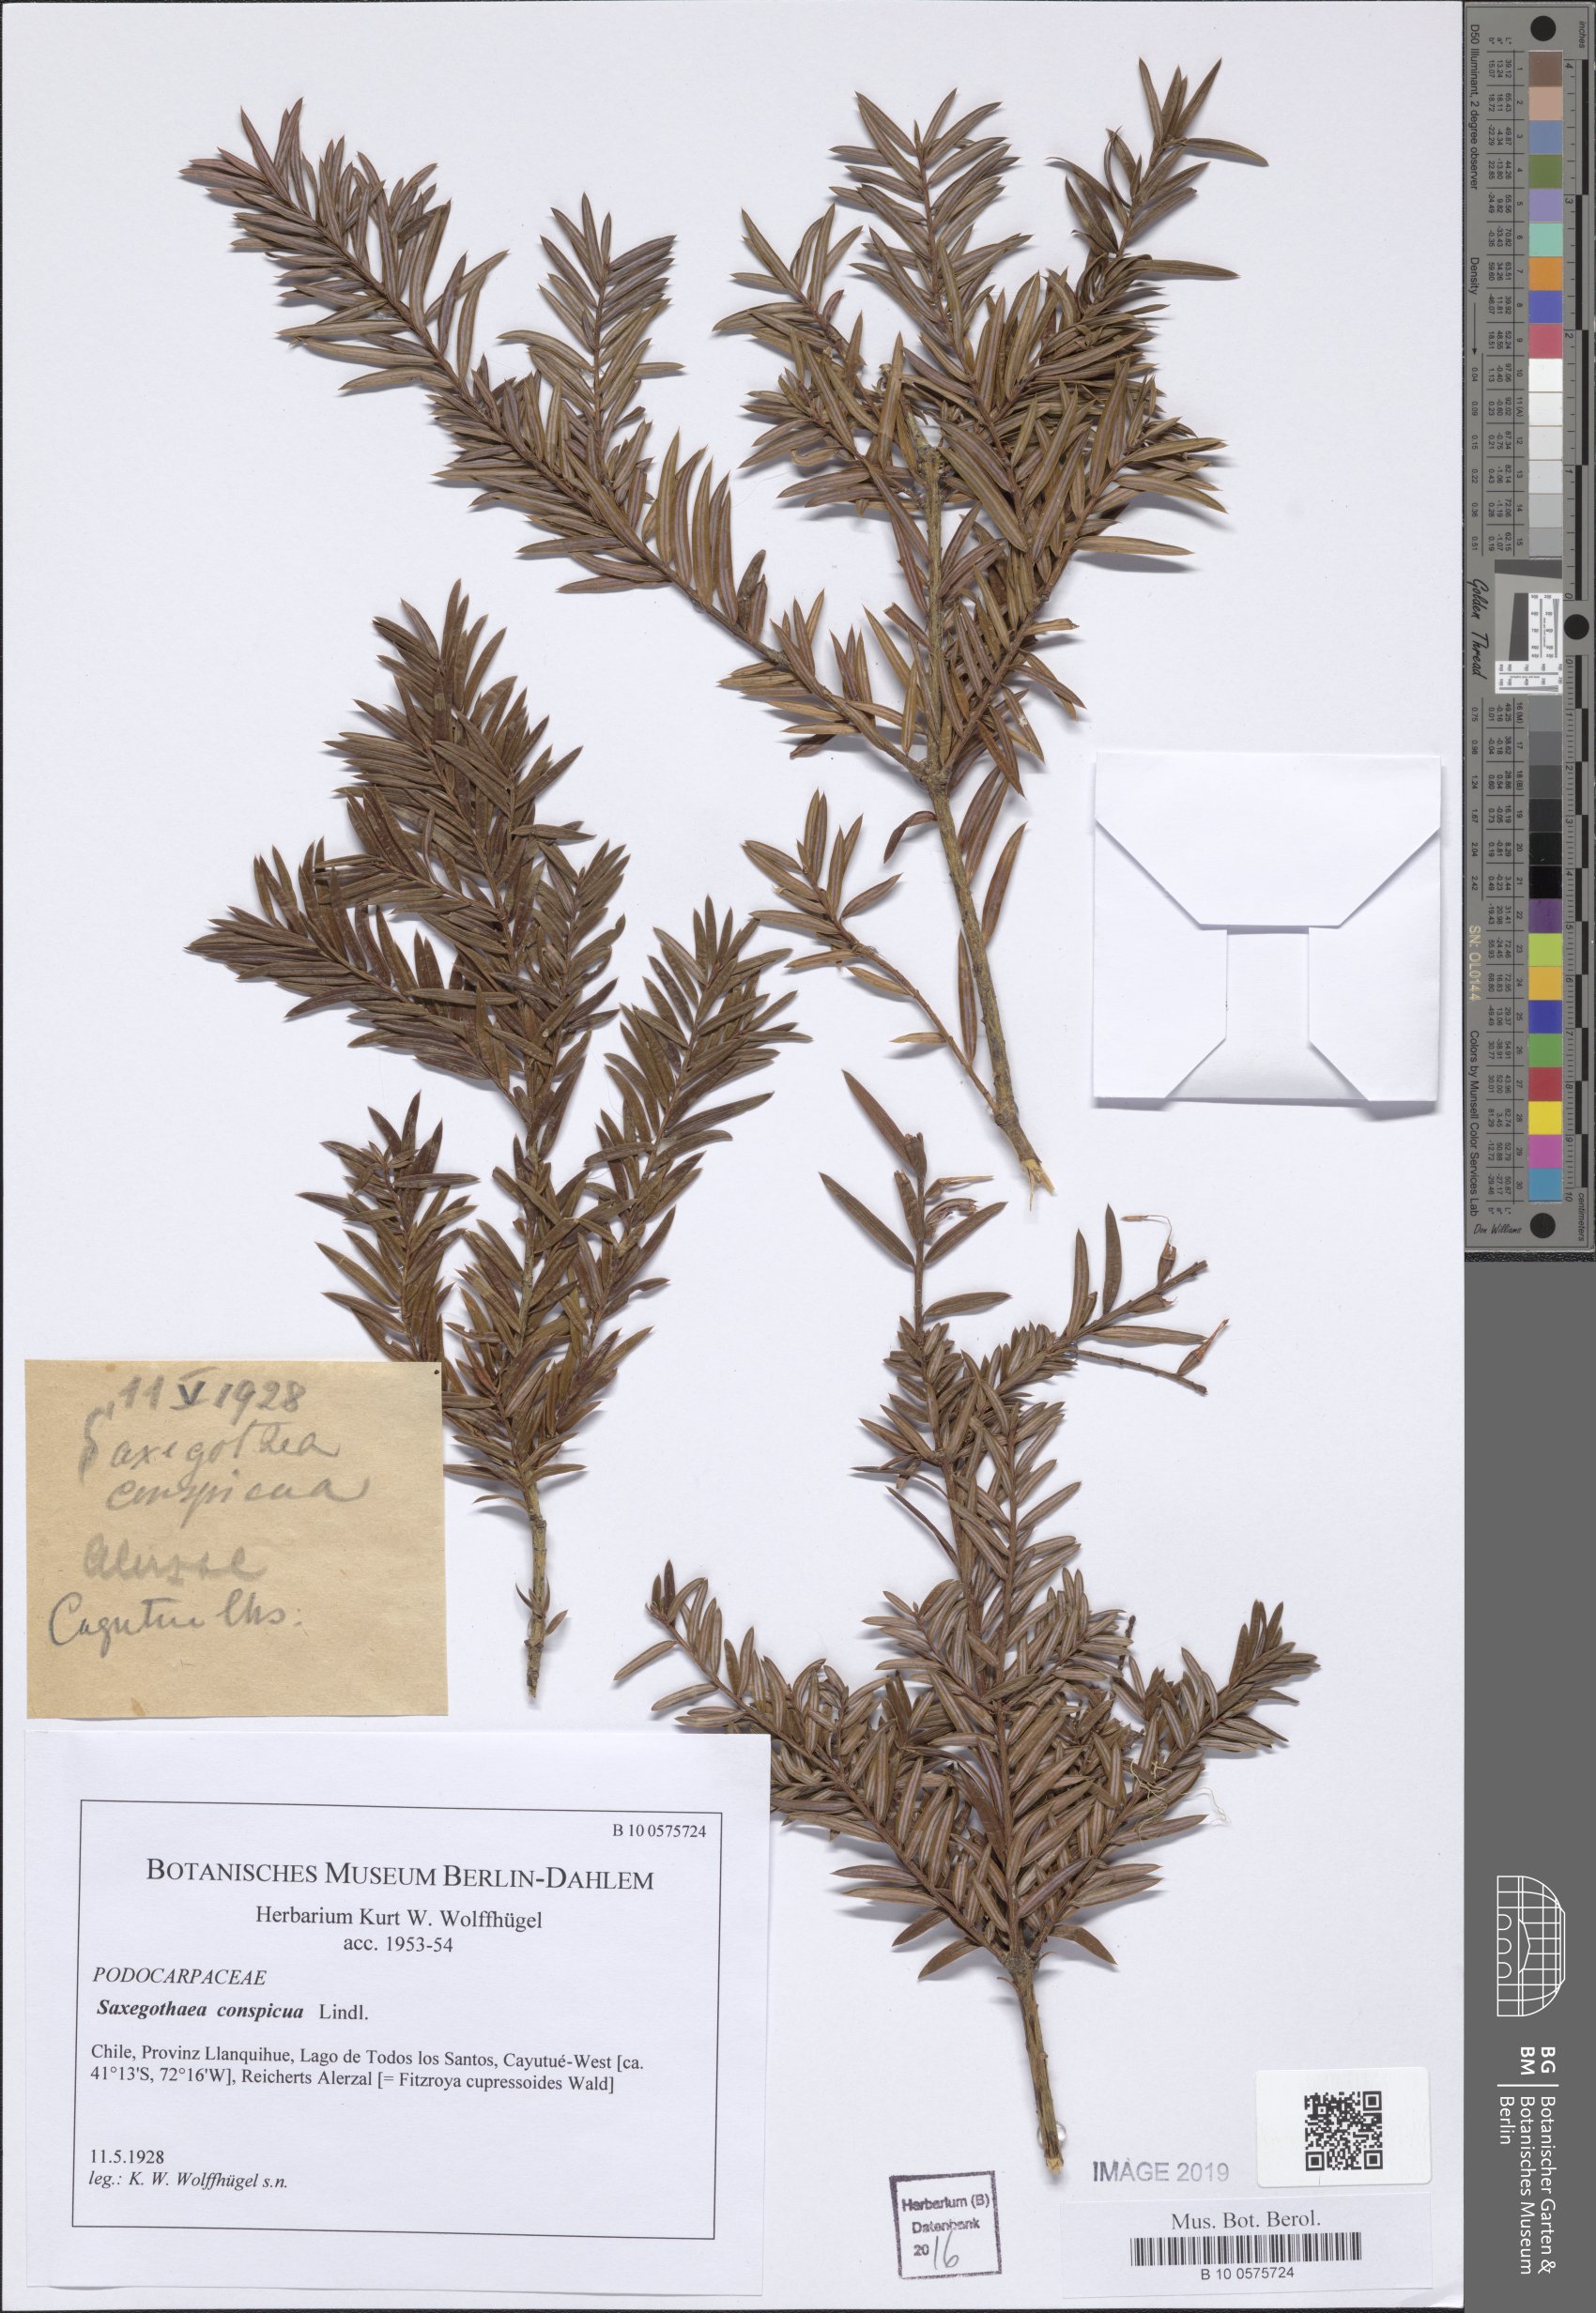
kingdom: Plantae
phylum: Tracheophyta
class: Pinopsida
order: Pinales
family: Podocarpaceae
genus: Saxegothaea
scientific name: Saxegothaea conspicua
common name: Prince albert's yew
